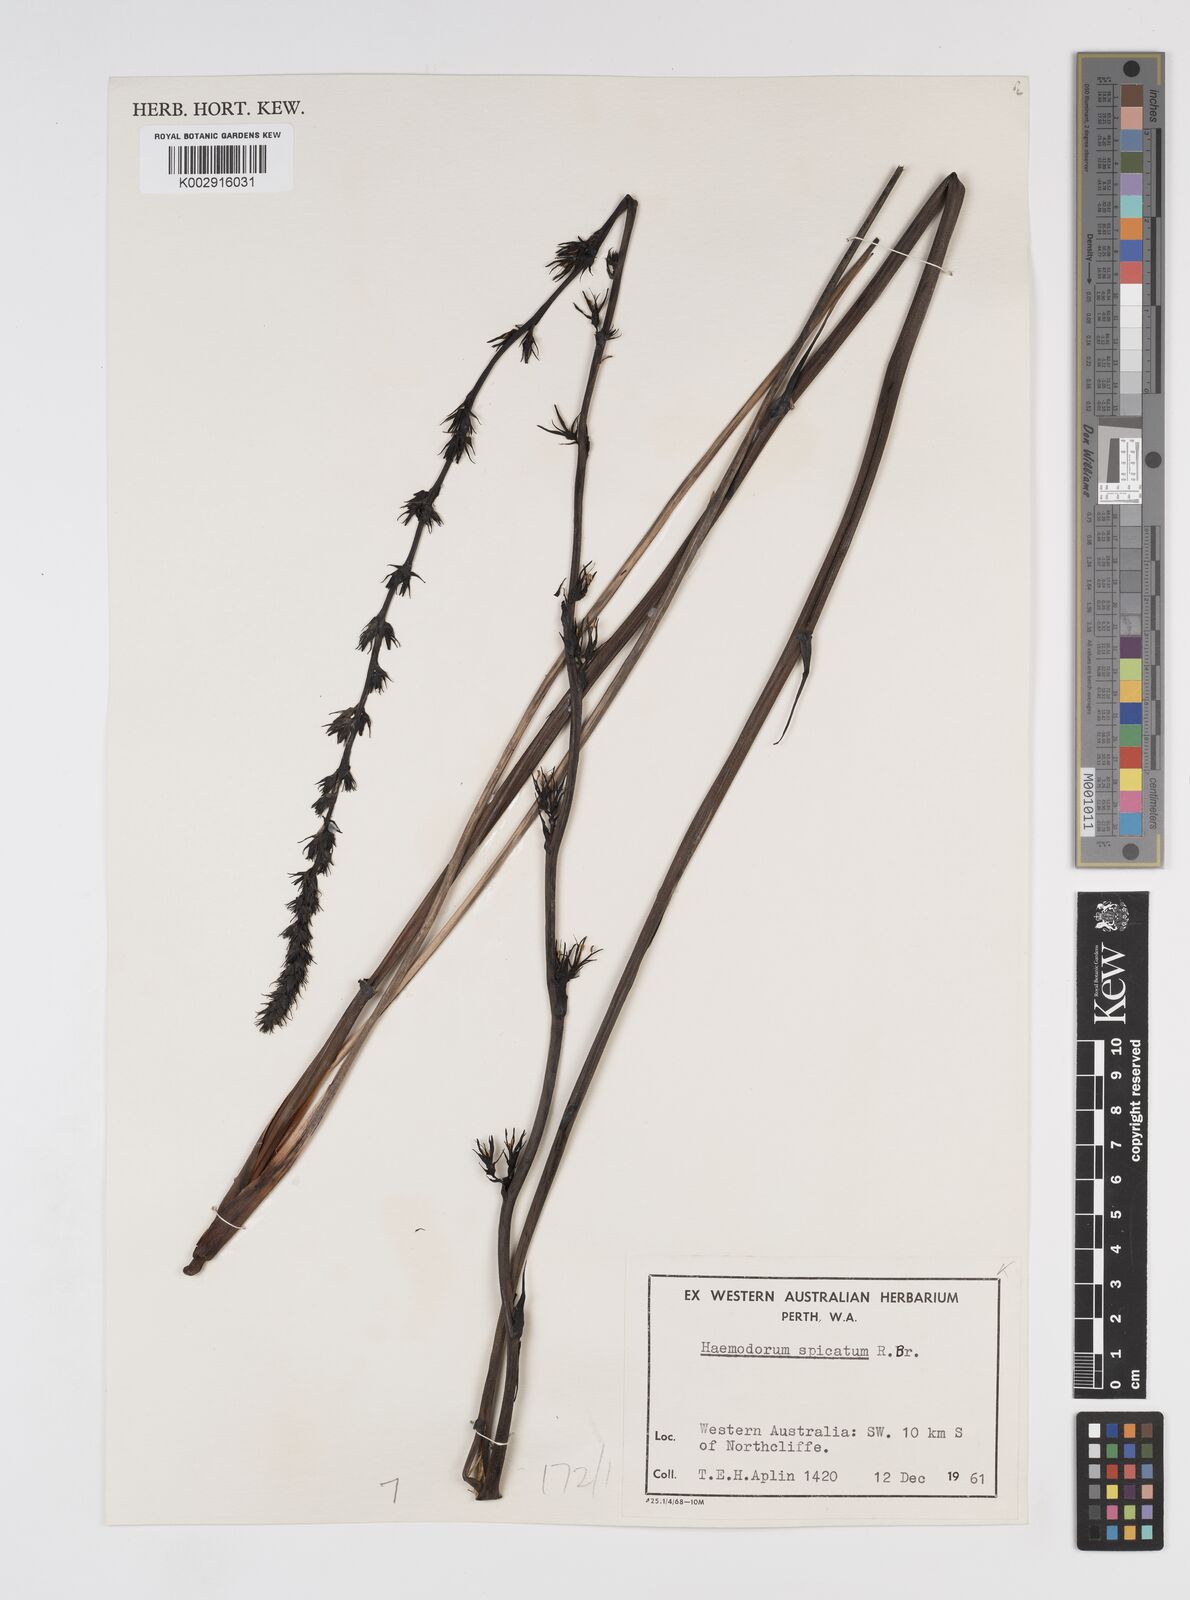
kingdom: Plantae
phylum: Tracheophyta
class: Liliopsida
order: Commelinales
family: Haemodoraceae
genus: Haemodorum
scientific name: Haemodorum spicatum
